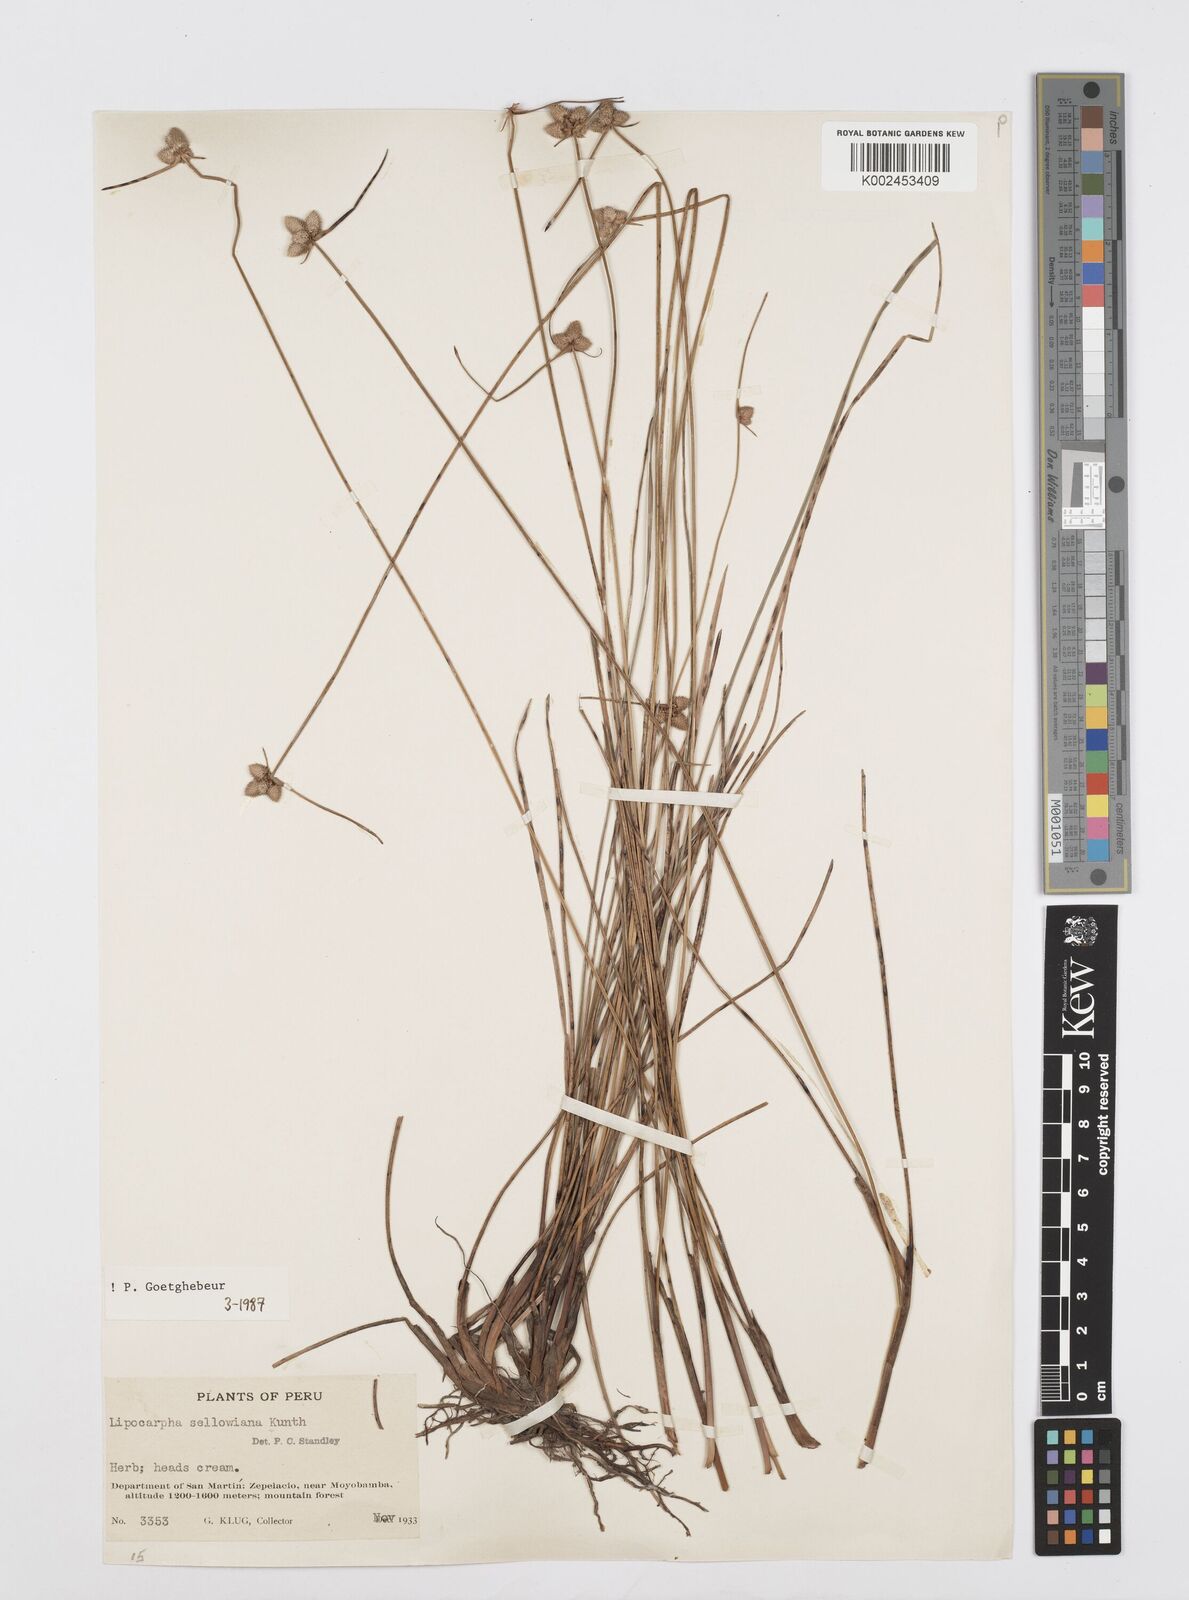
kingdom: Plantae
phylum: Tracheophyta
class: Liliopsida
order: Poales
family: Cyperaceae
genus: Cyperus
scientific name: Cyperus lanceolatus
